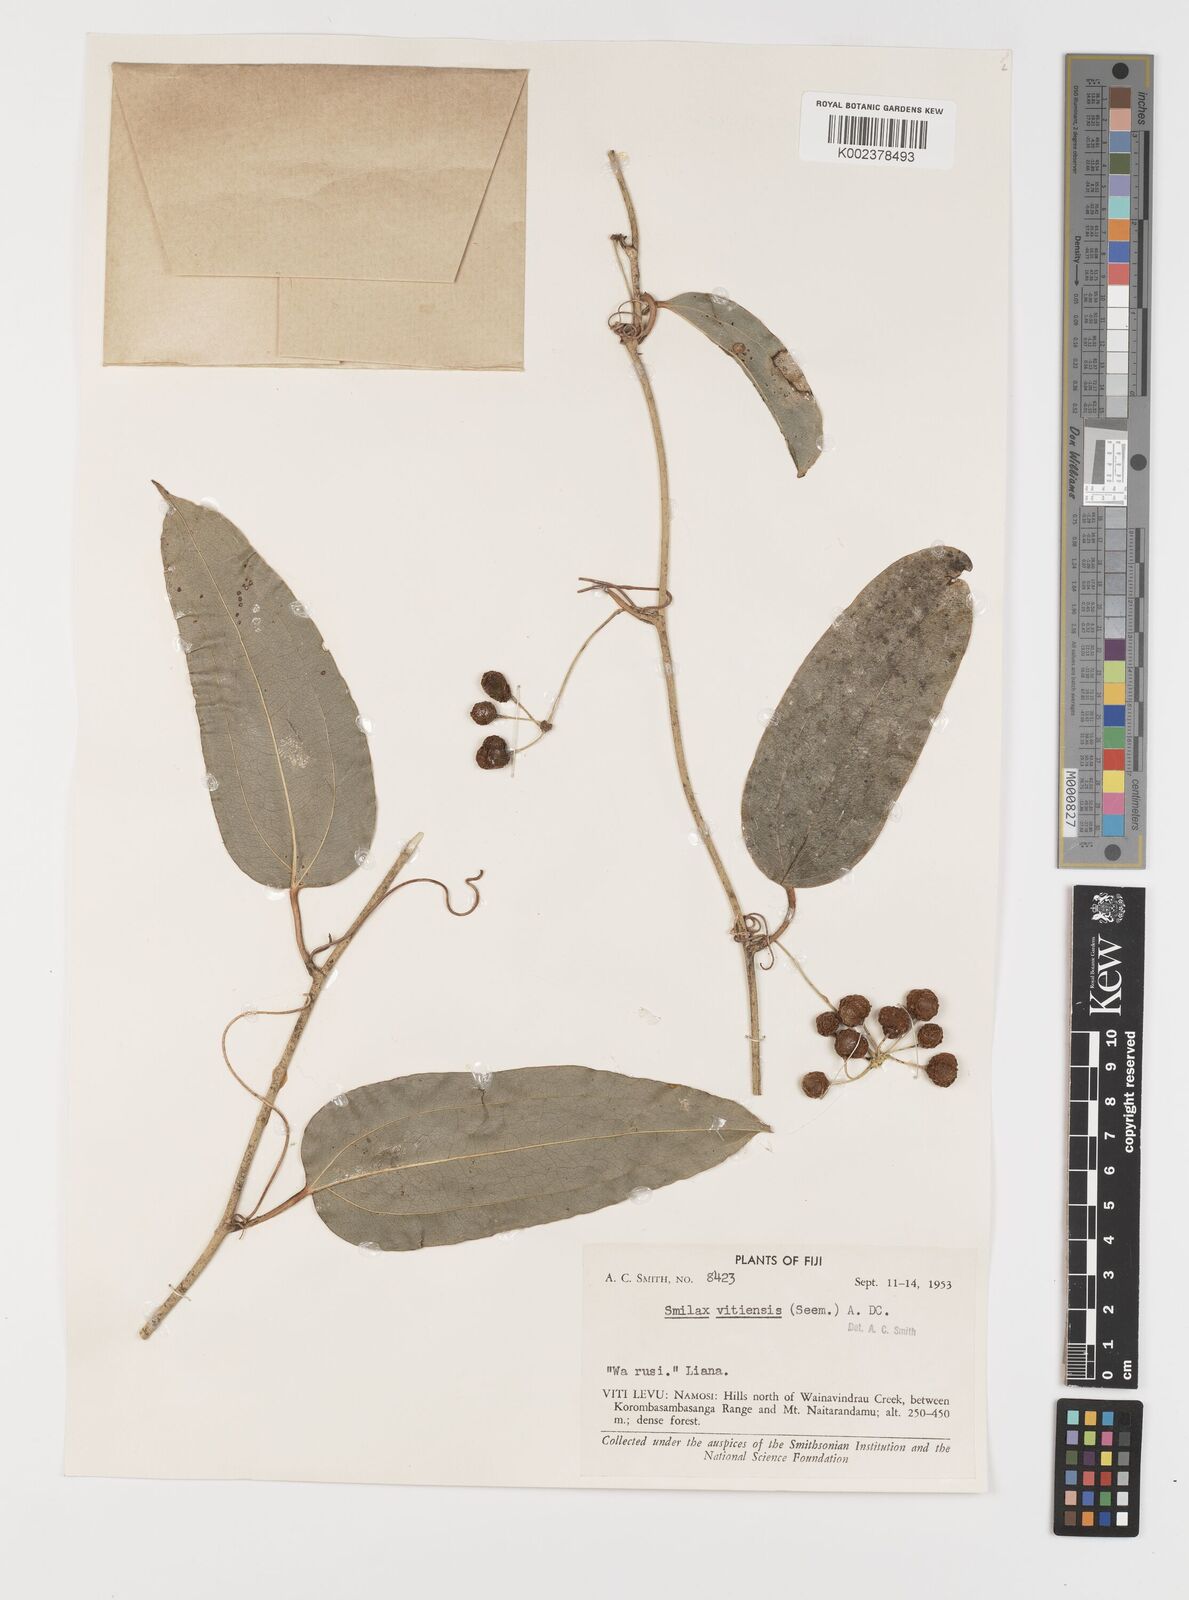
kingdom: Plantae
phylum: Tracheophyta
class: Liliopsida
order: Liliales
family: Smilacaceae
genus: Smilax
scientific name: Smilax vitiensis
